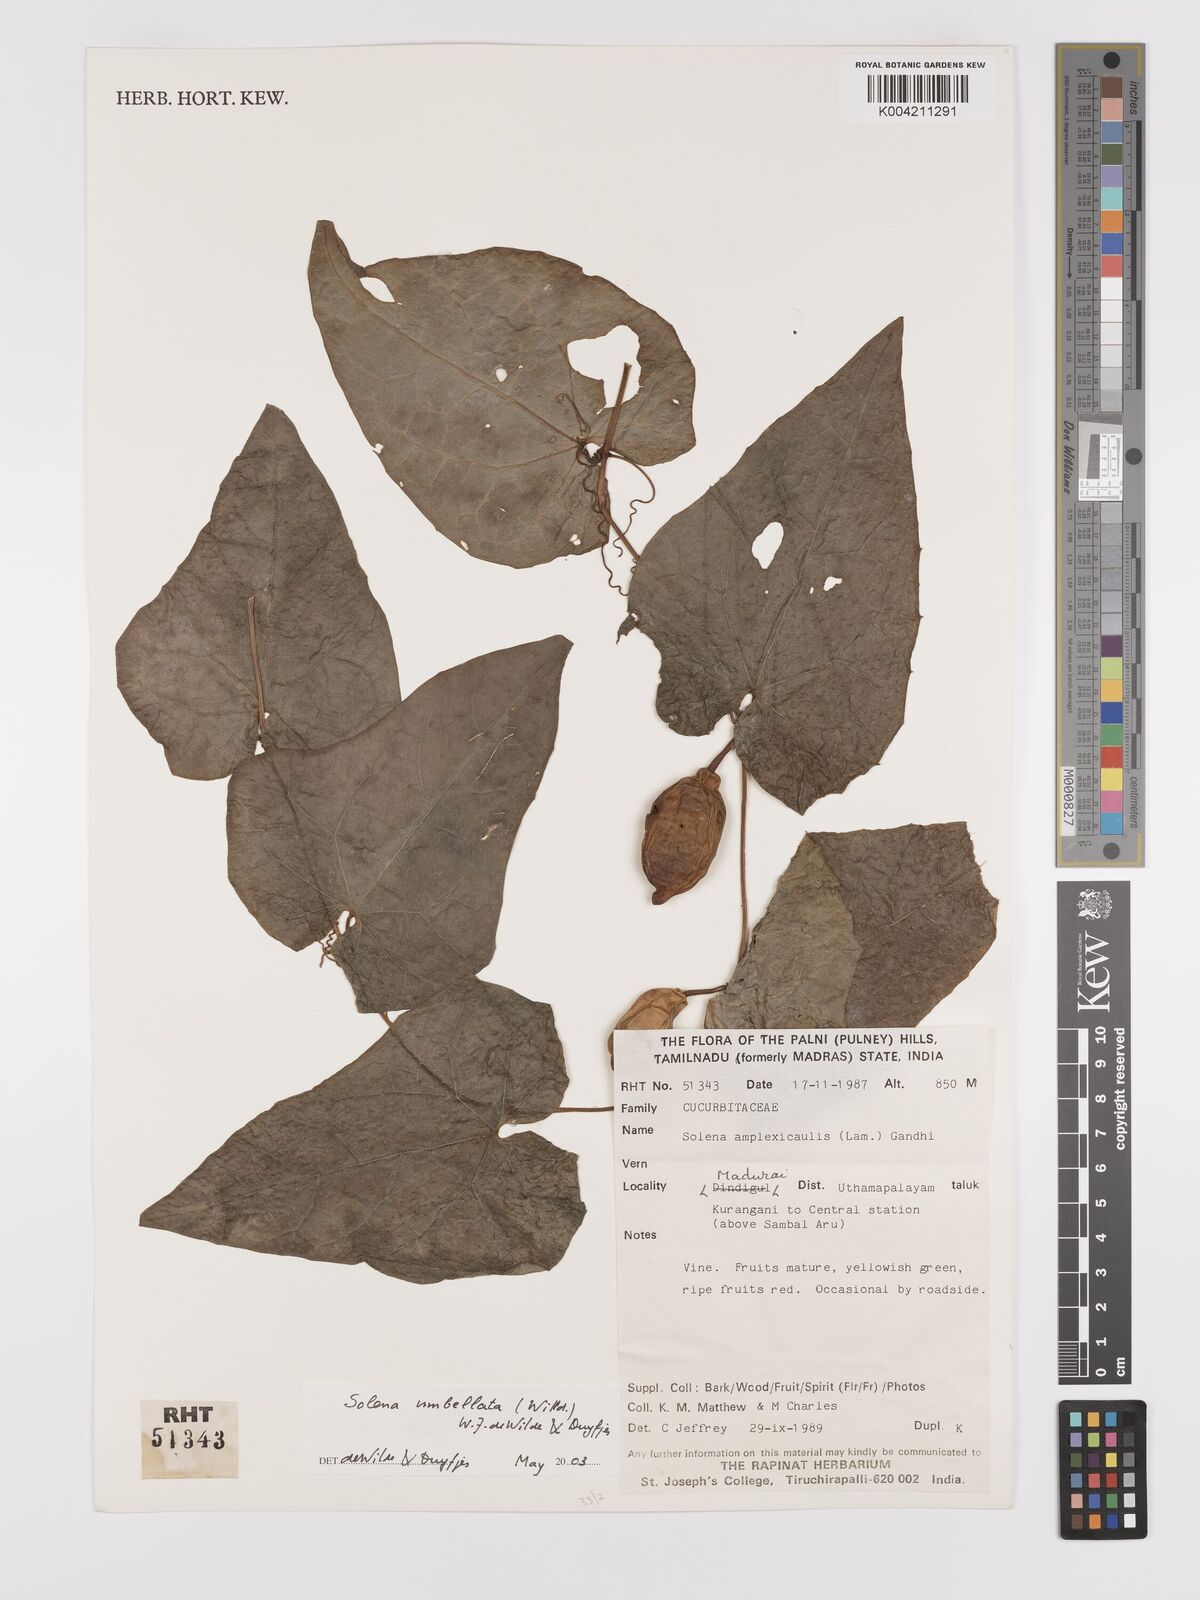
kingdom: Plantae
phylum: Tracheophyta
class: Magnoliopsida
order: Cucurbitales
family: Cucurbitaceae
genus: Solena
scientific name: Solena amplexicaulis
